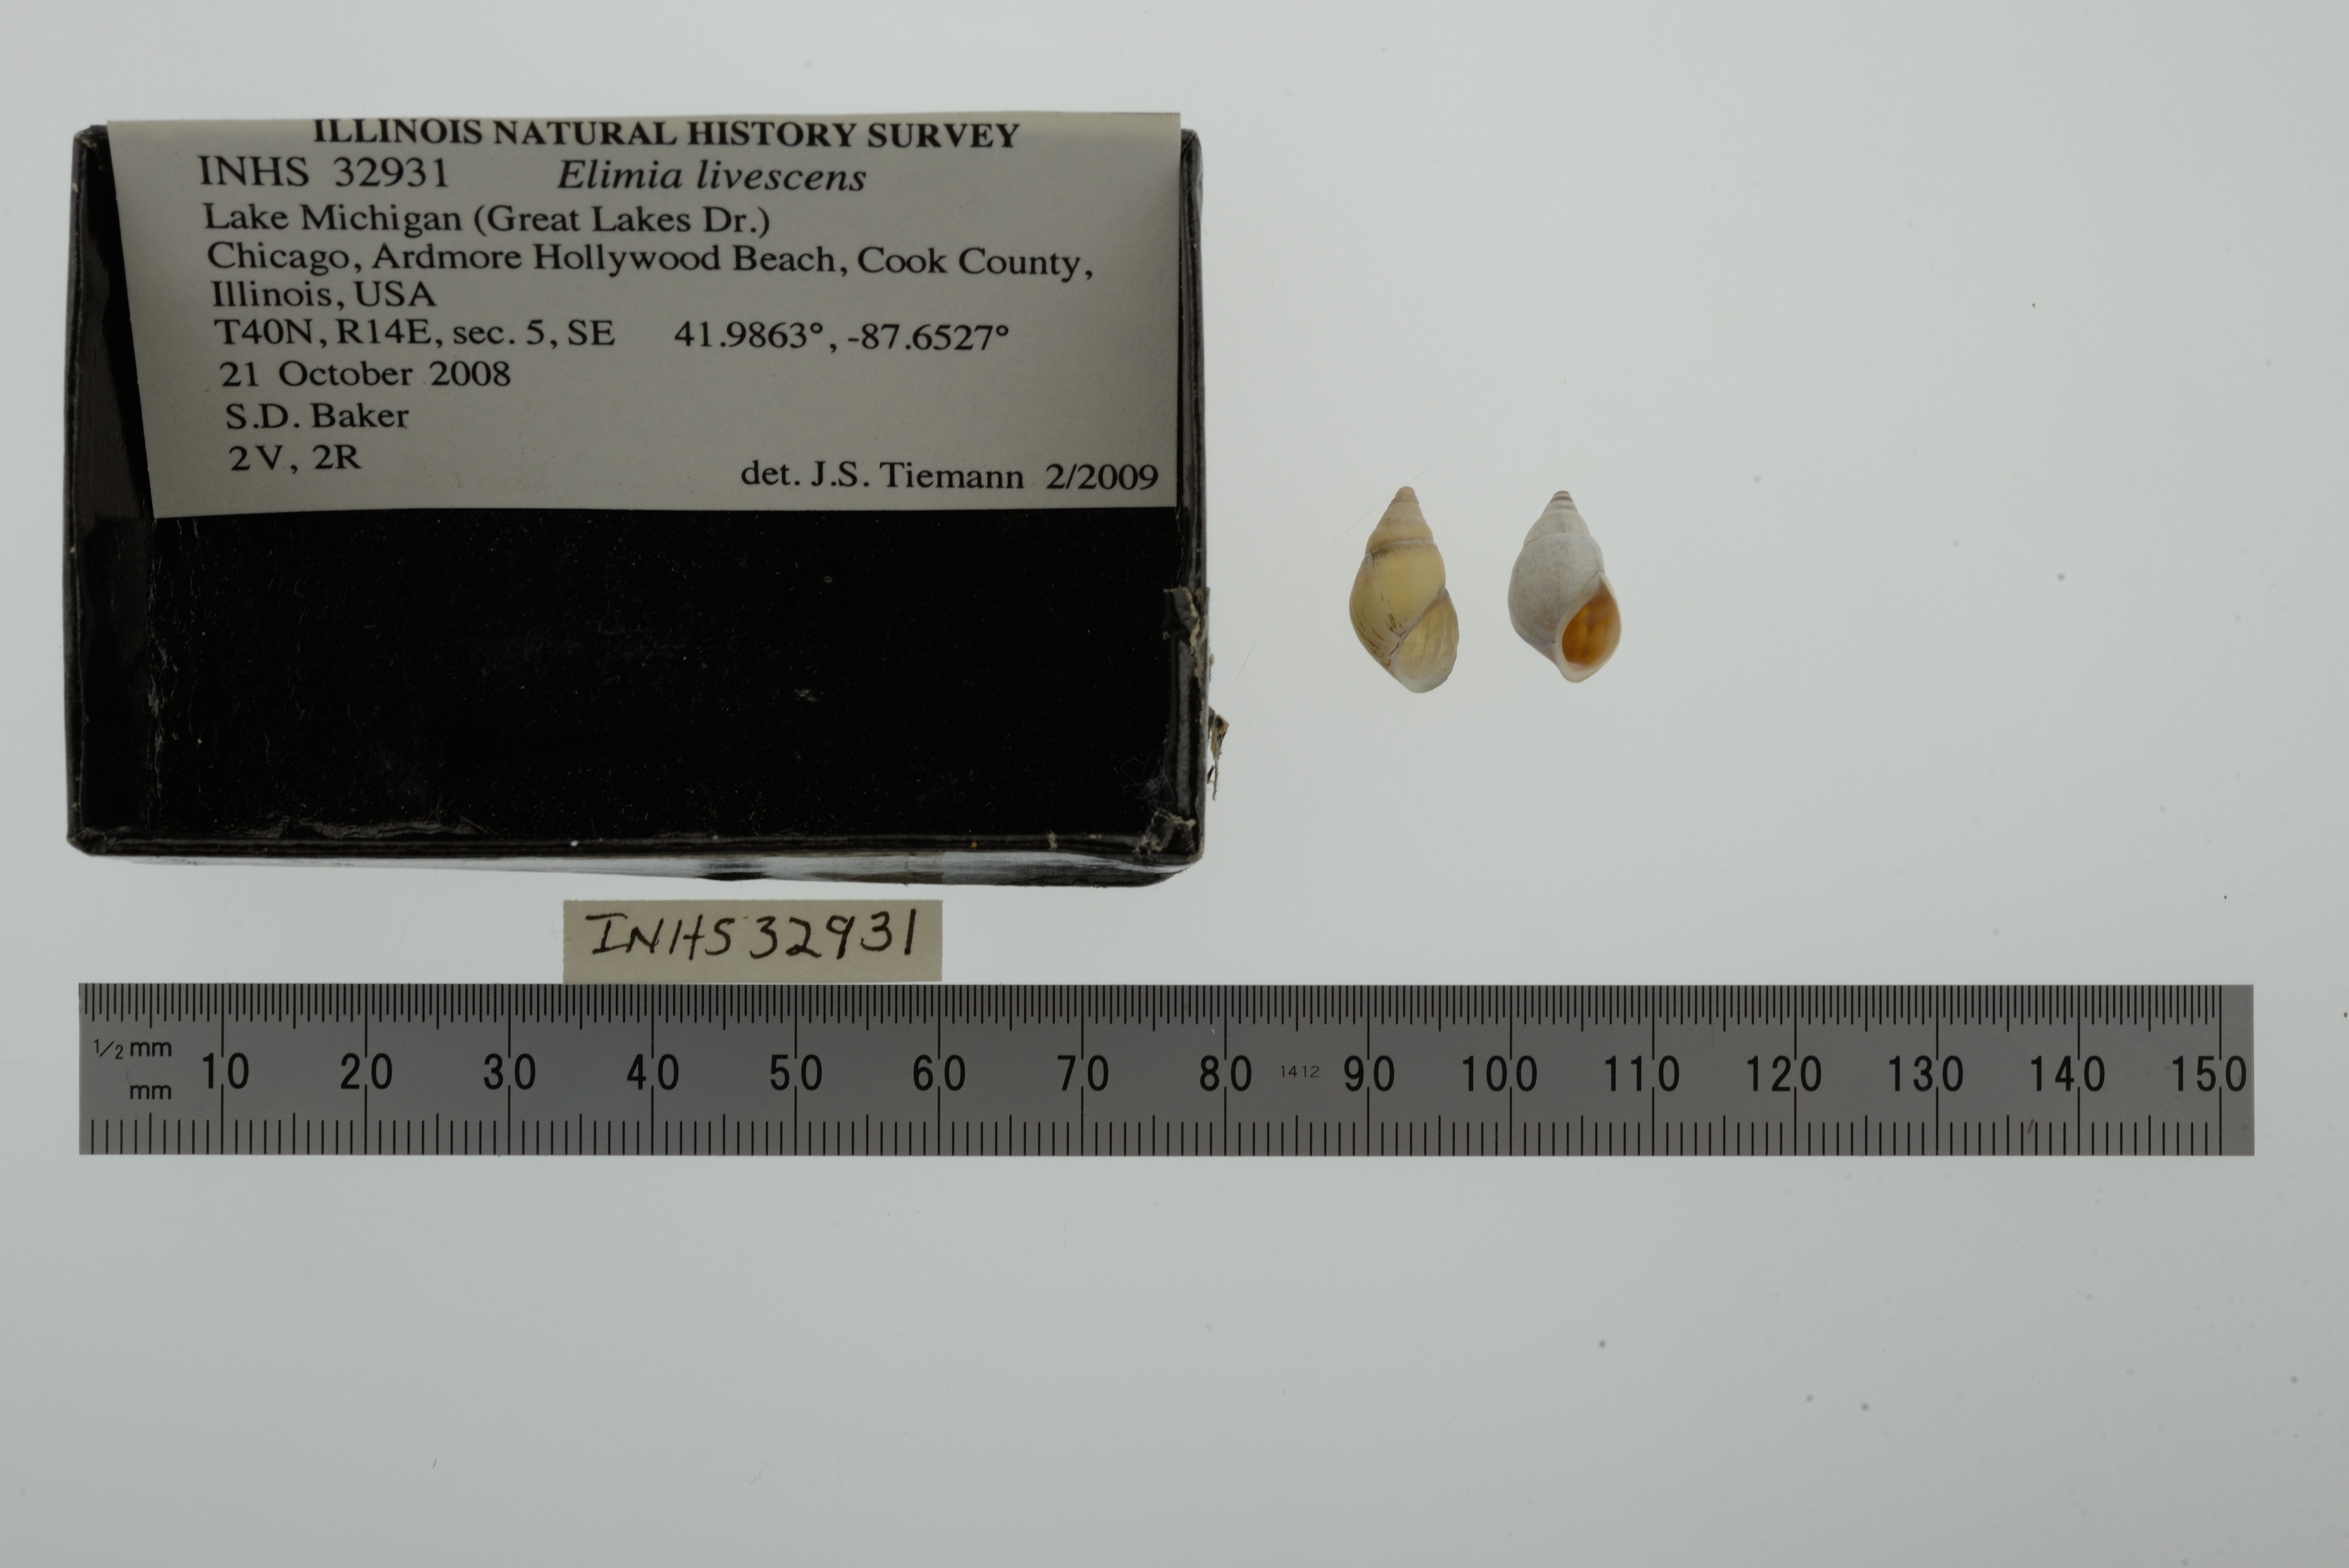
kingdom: Animalia
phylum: Mollusca
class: Gastropoda
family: Pleuroceridae
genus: Elimia
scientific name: Elimia livescens
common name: Liver elimia
